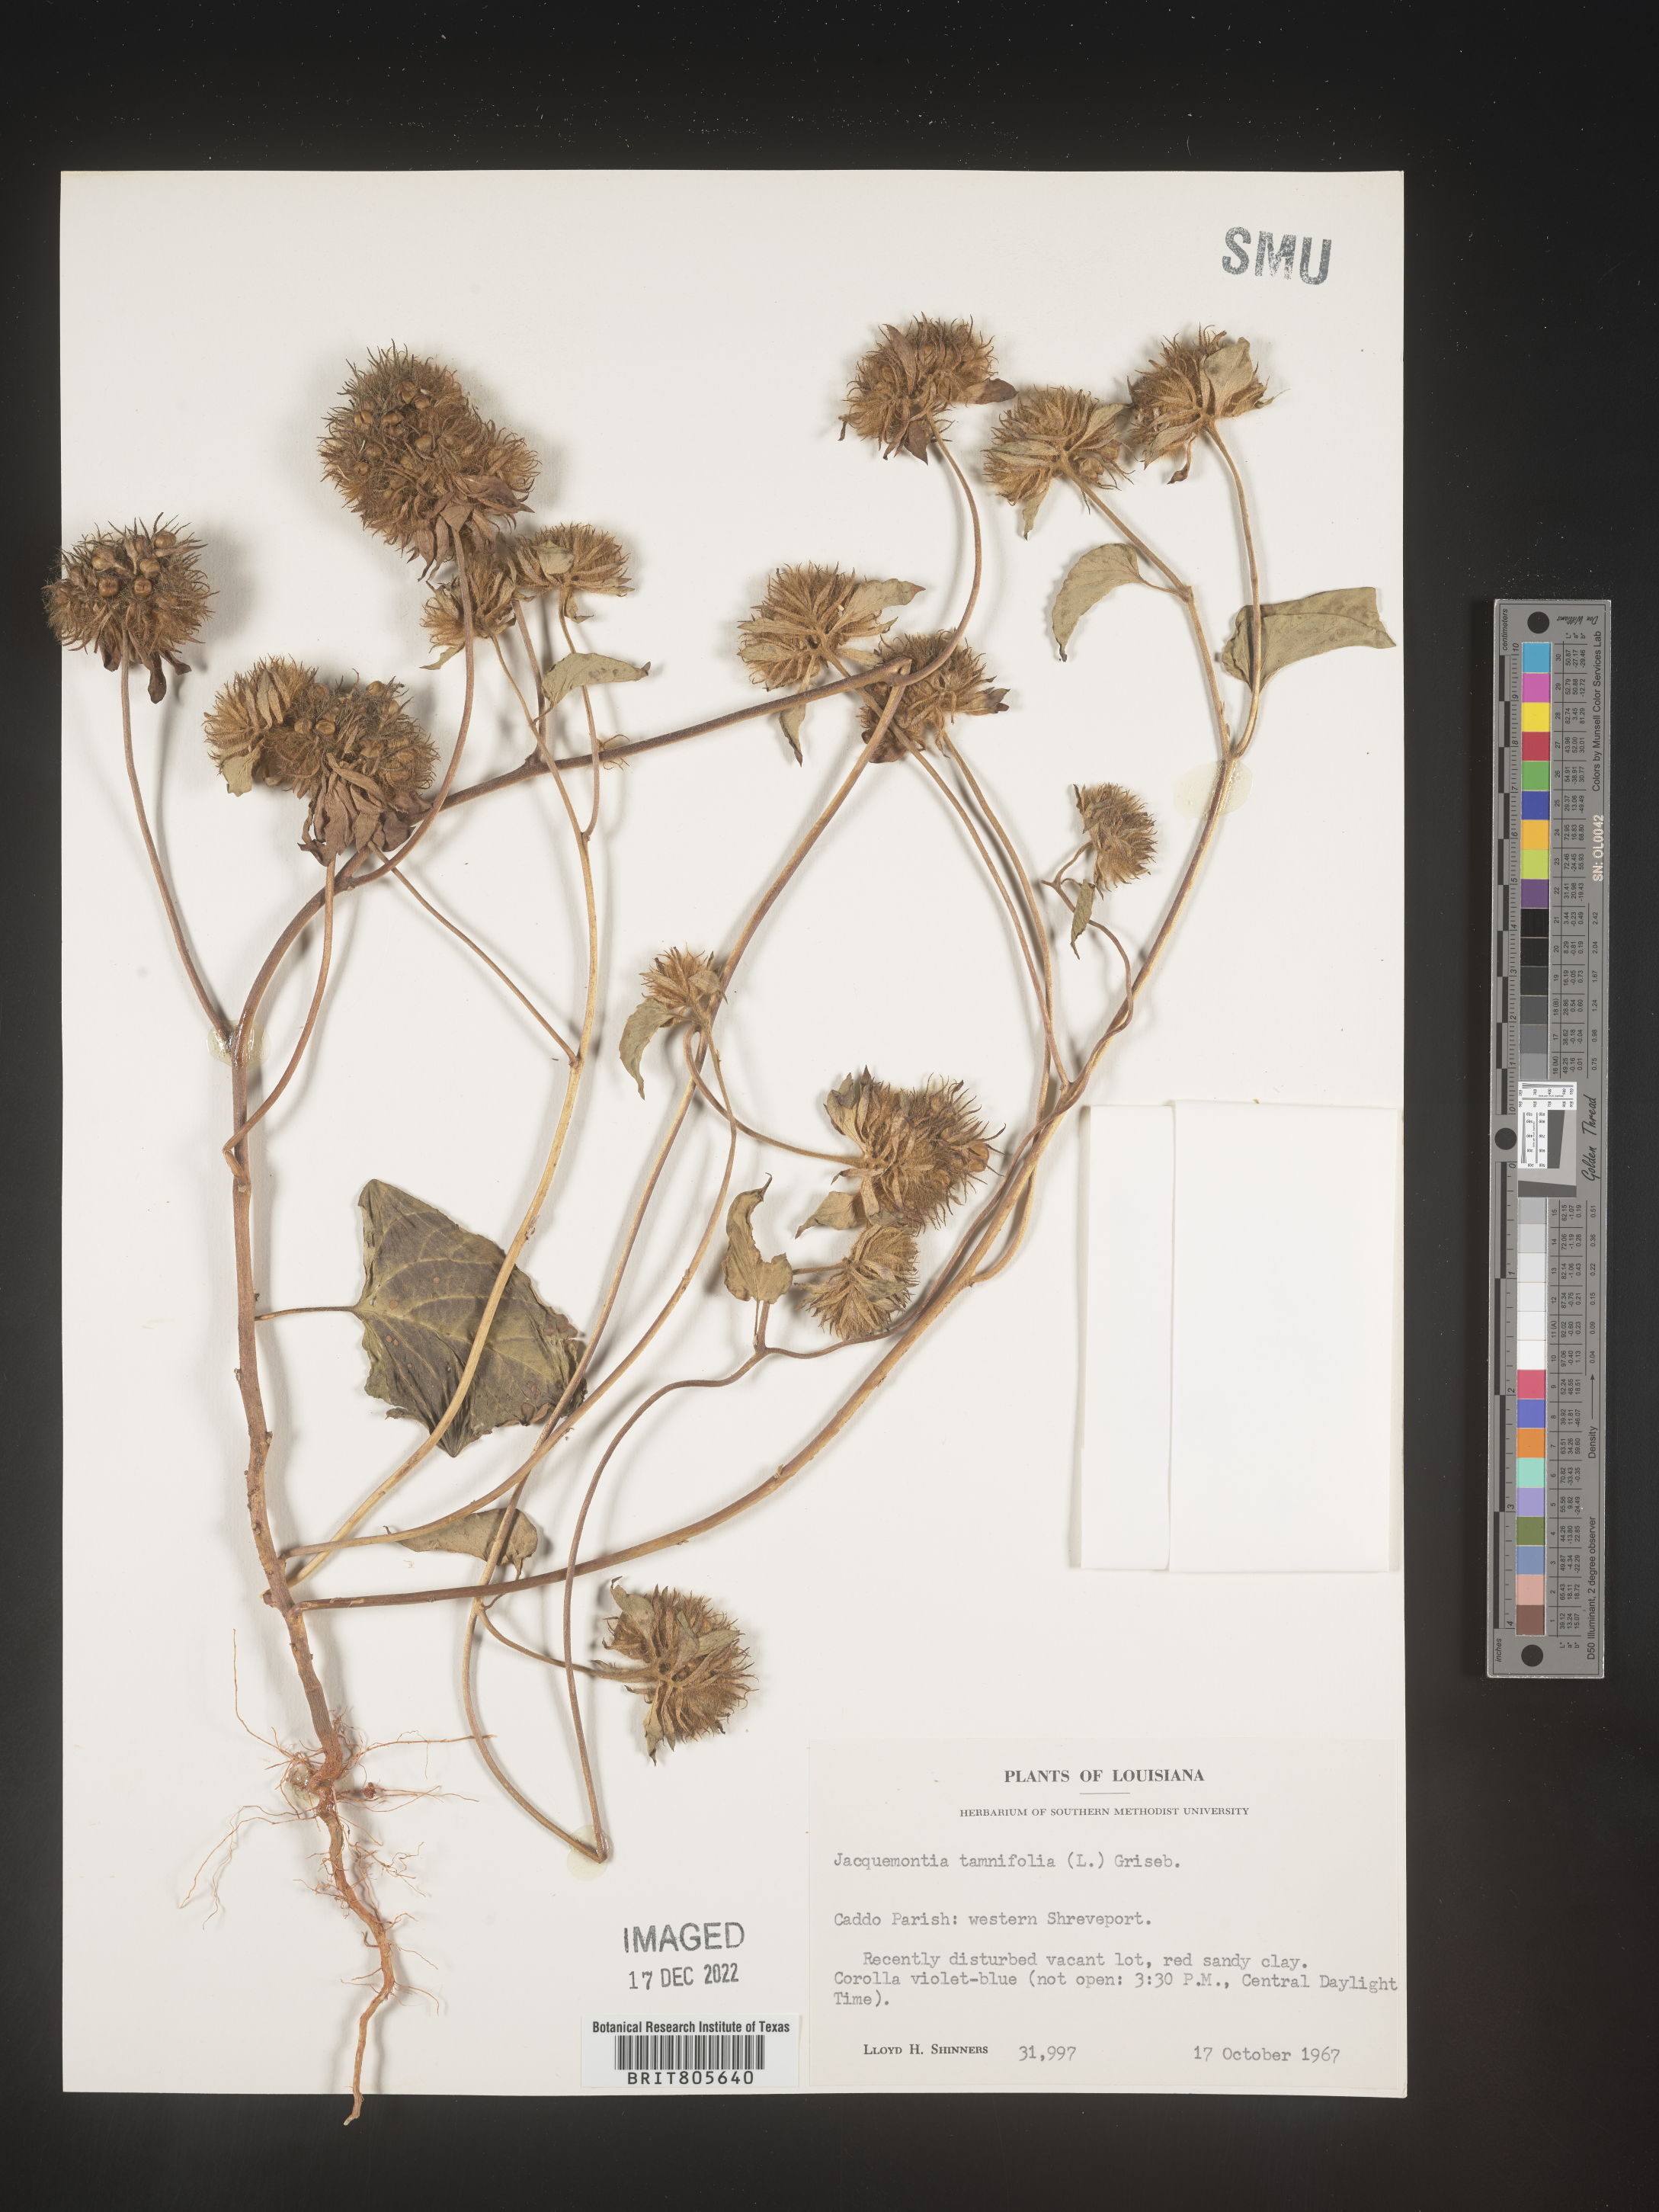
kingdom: Plantae
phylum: Tracheophyta
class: Magnoliopsida
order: Solanales
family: Convolvulaceae
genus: Jacquemontia
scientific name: Jacquemontia tamnifolia
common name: Hairy clustervine
